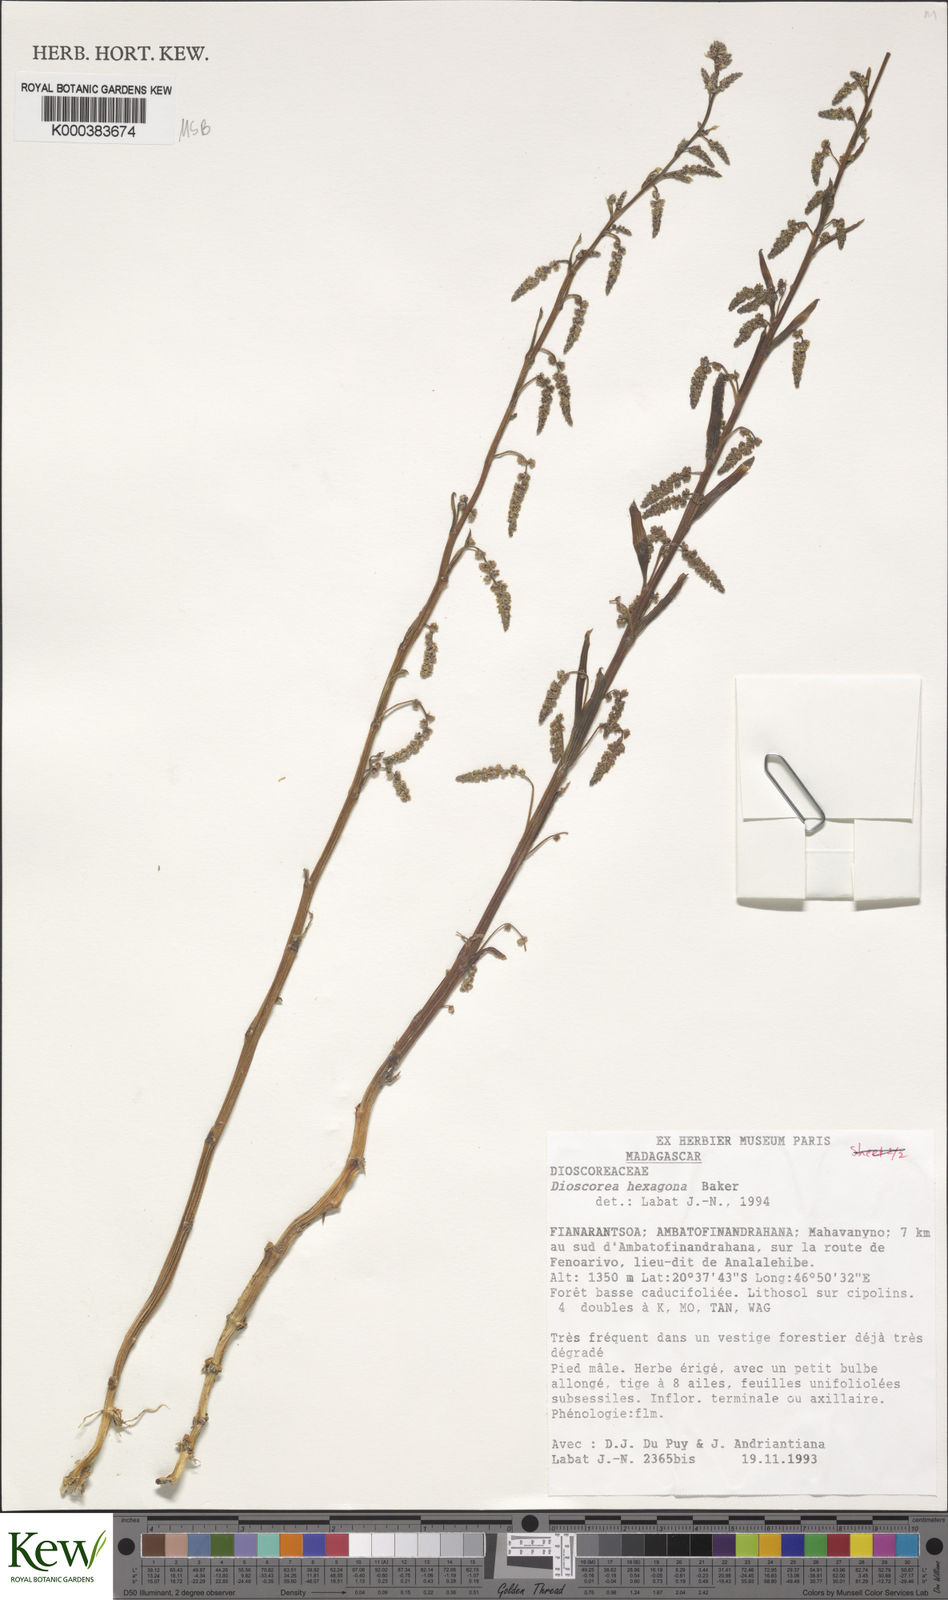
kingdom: Plantae
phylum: Tracheophyta
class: Liliopsida
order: Dioscoreales
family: Dioscoreaceae
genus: Dioscorea
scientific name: Dioscorea hexagona
